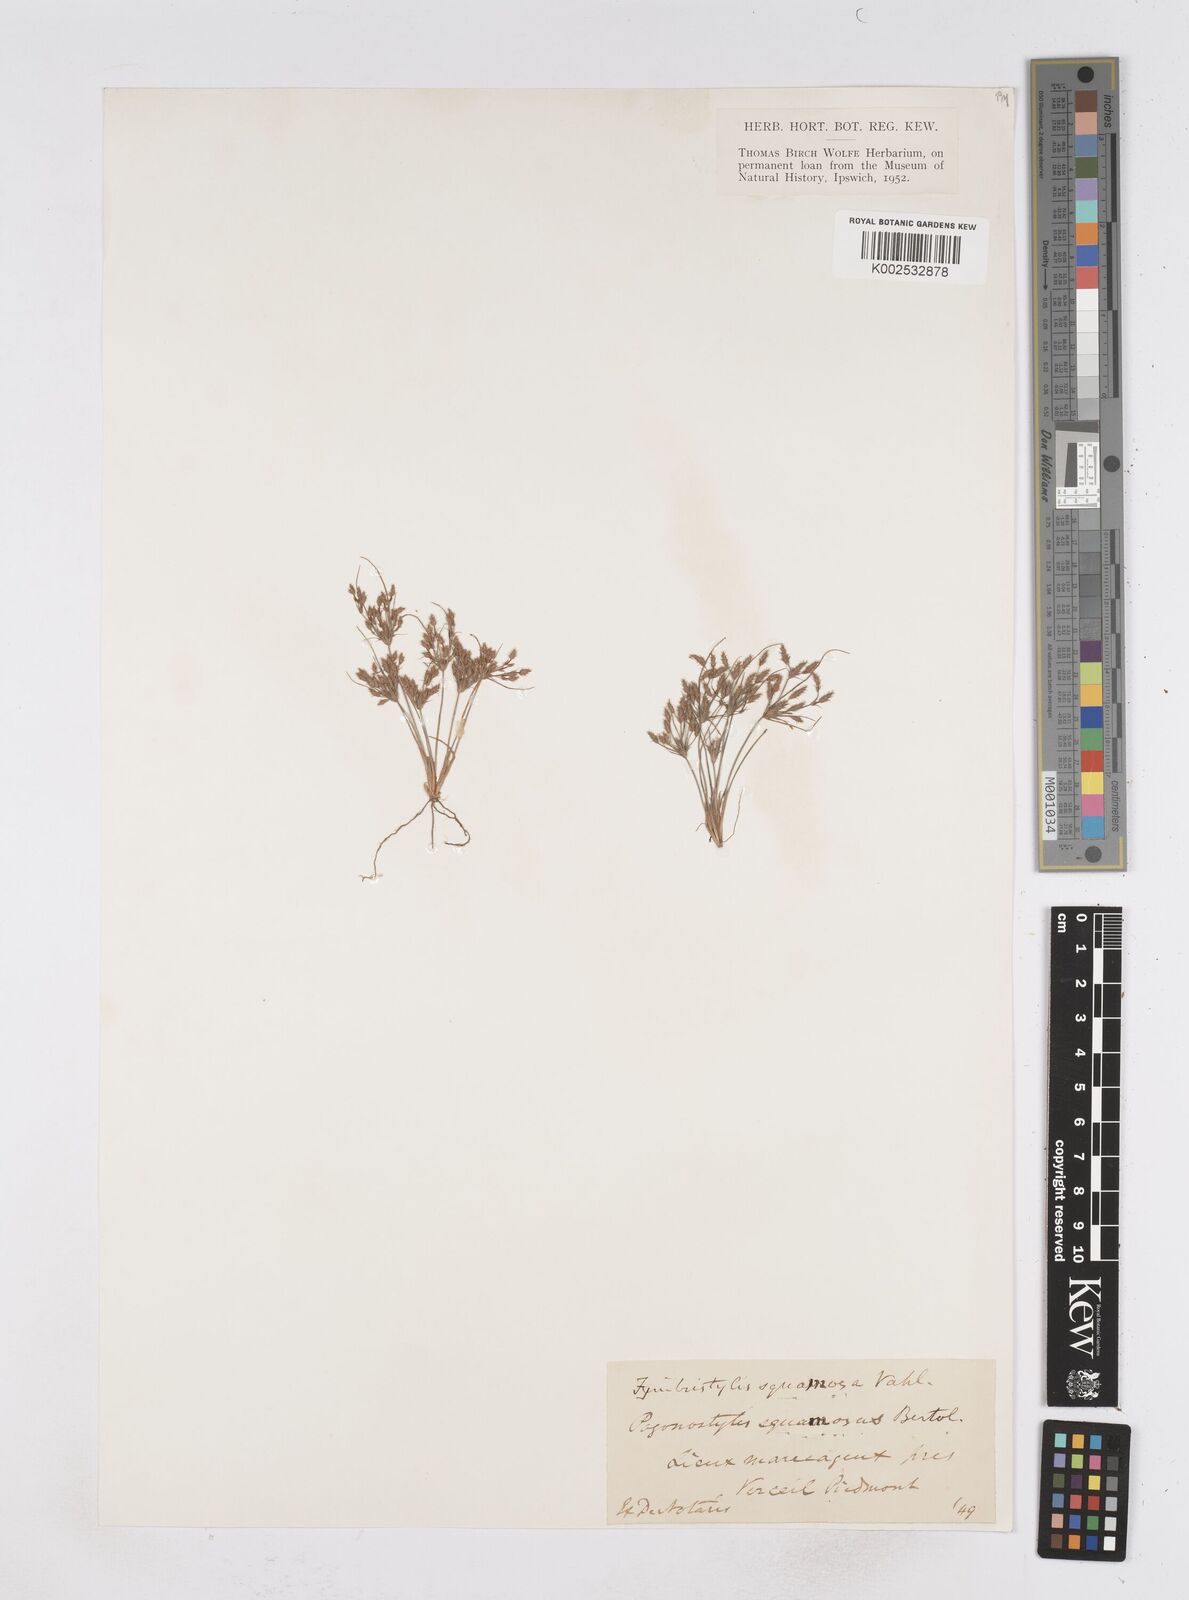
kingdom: Plantae
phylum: Tracheophyta
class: Liliopsida
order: Poales
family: Cyperaceae
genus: Fimbristylis
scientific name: Fimbristylis squarrosa
